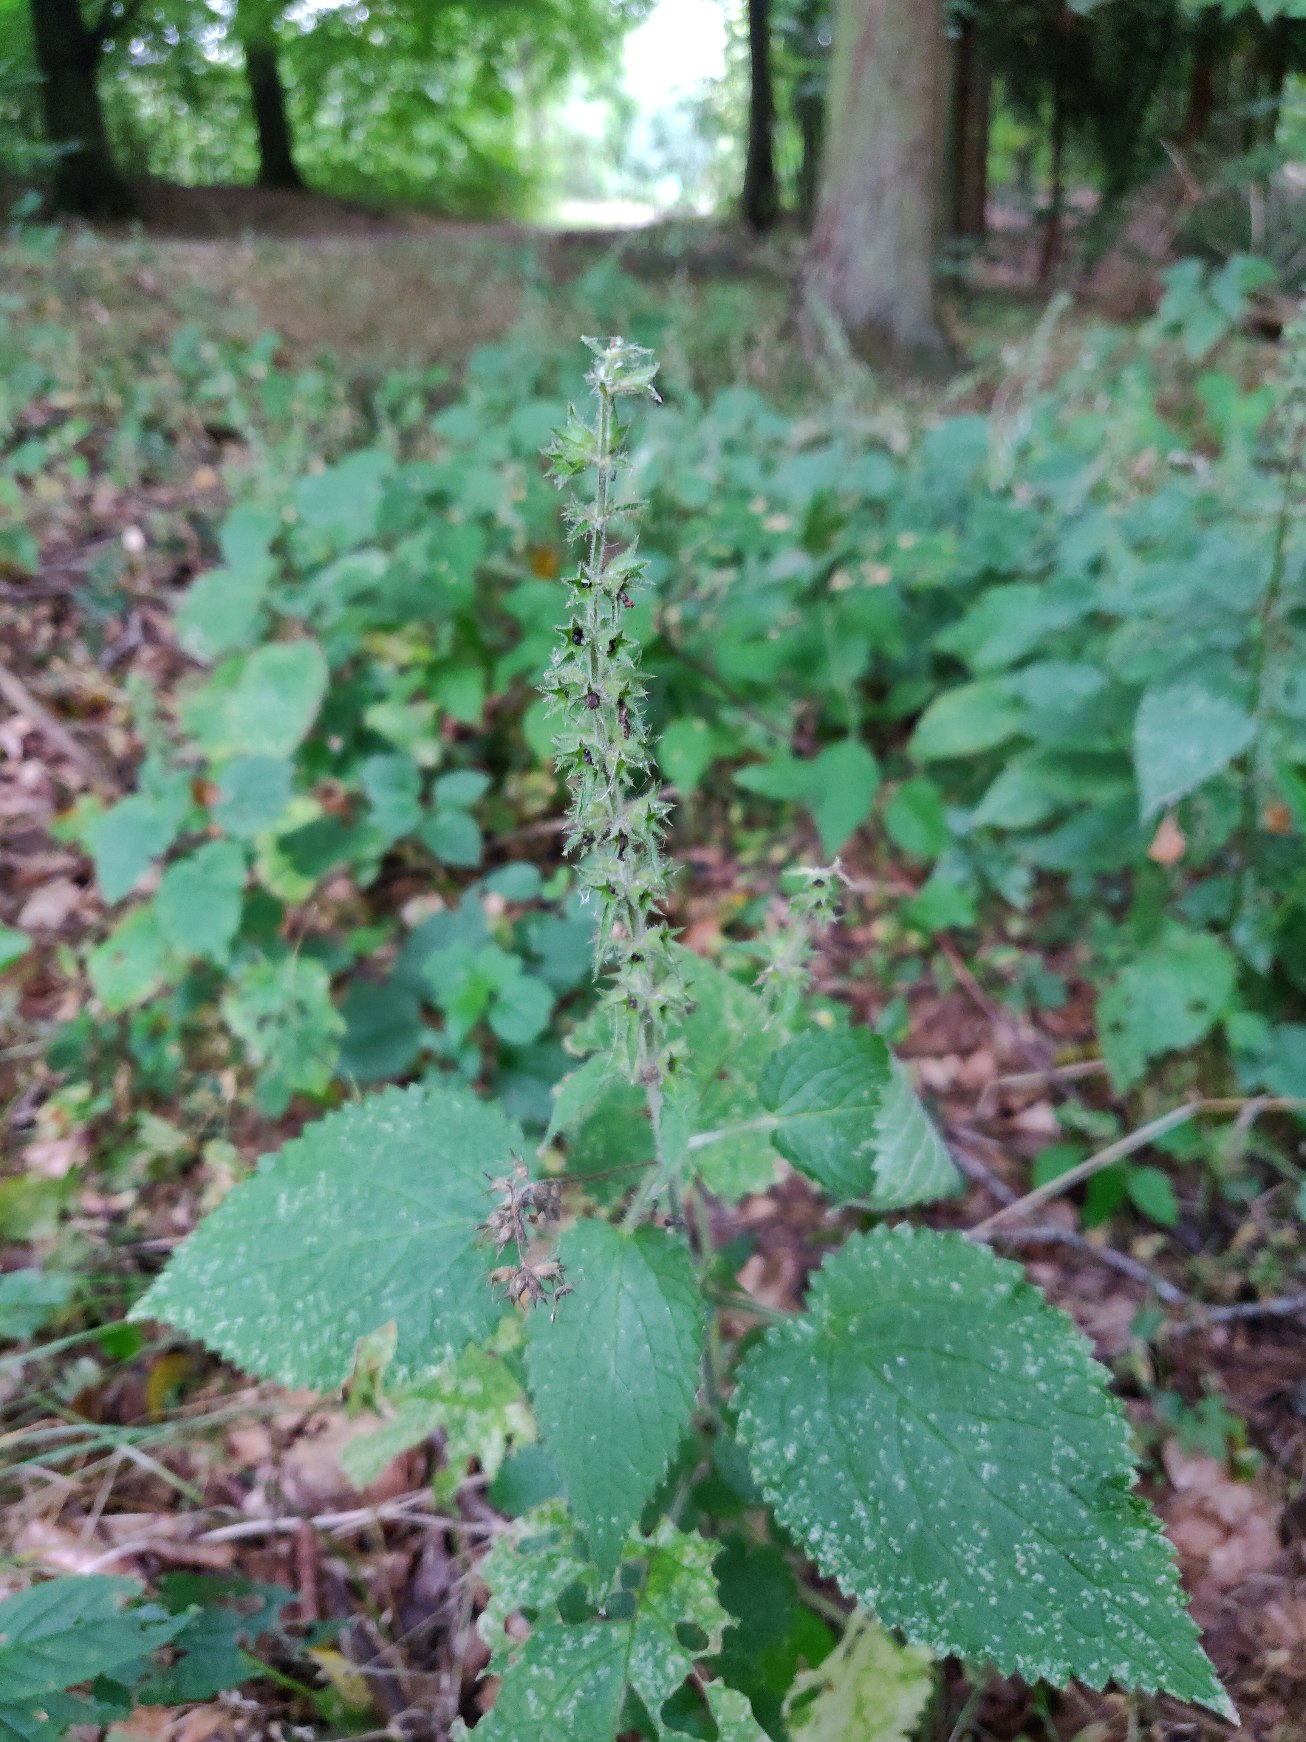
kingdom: Plantae
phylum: Tracheophyta
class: Magnoliopsida
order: Lamiales
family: Lamiaceae
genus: Stachys
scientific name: Stachys sylvatica
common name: Skov-galtetand
